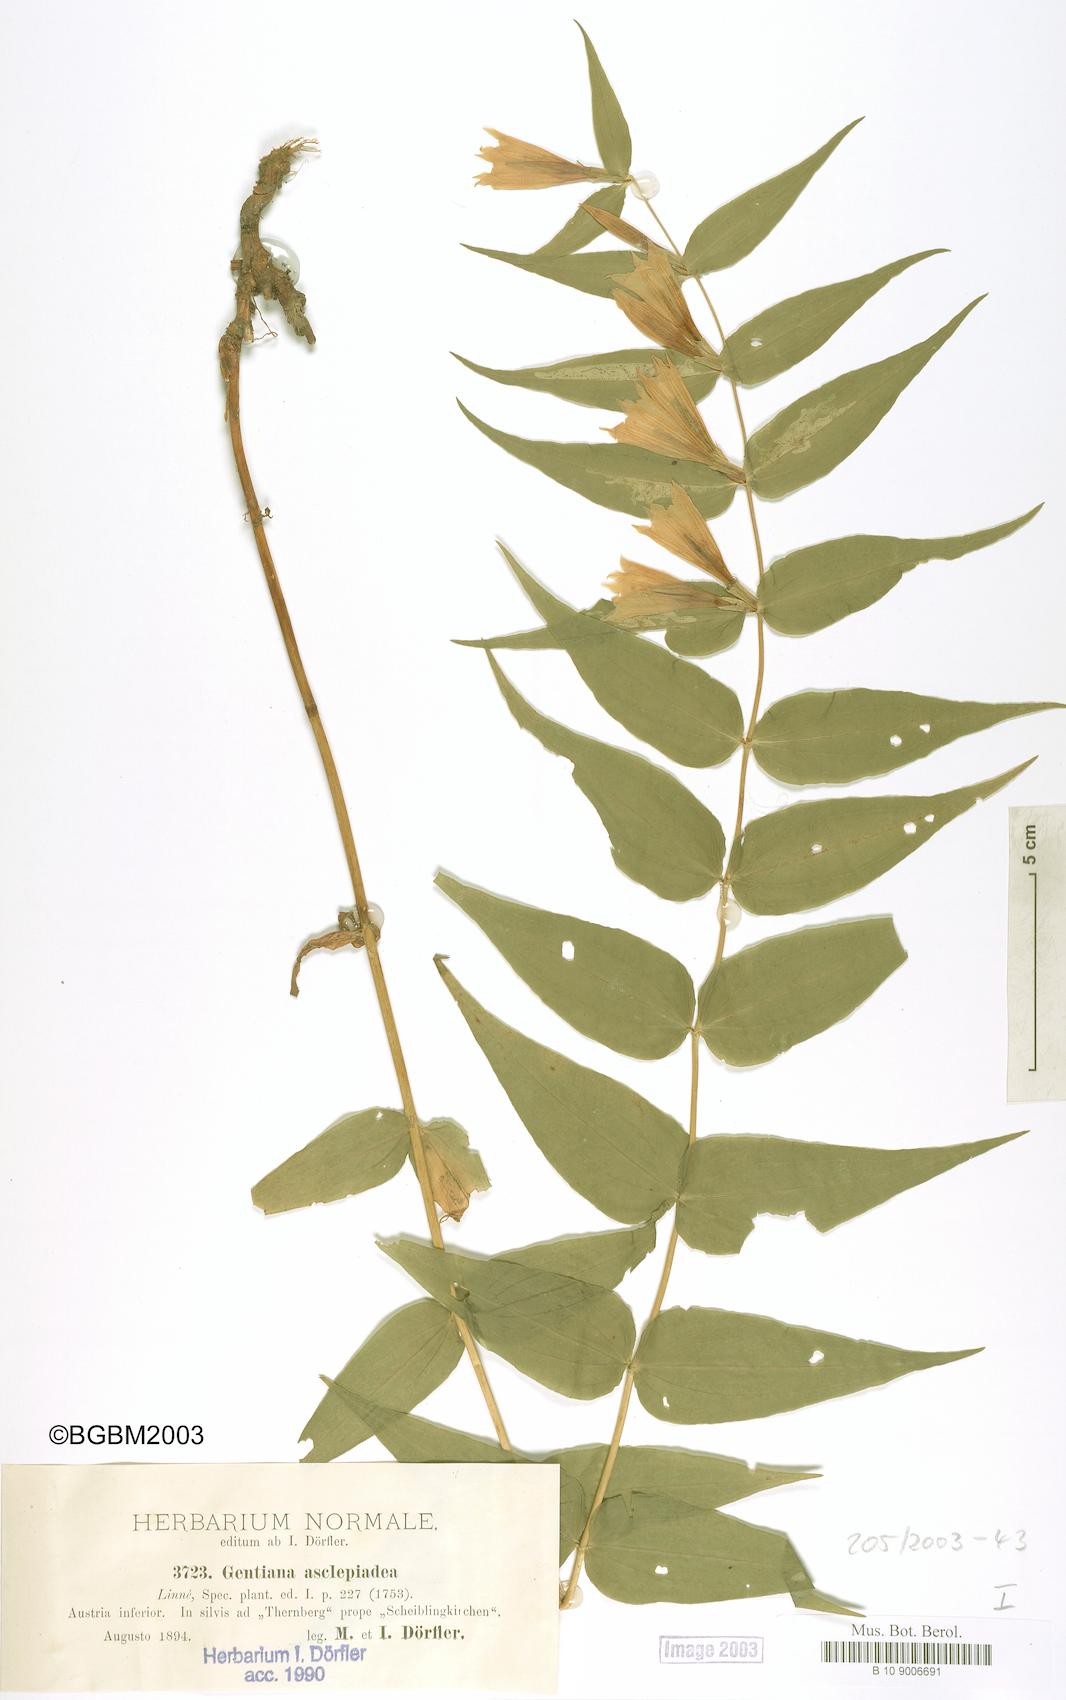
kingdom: Plantae
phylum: Tracheophyta
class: Magnoliopsida
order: Gentianales
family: Gentianaceae
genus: Gentiana
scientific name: Gentiana asclepiadea
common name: Willow gentian
